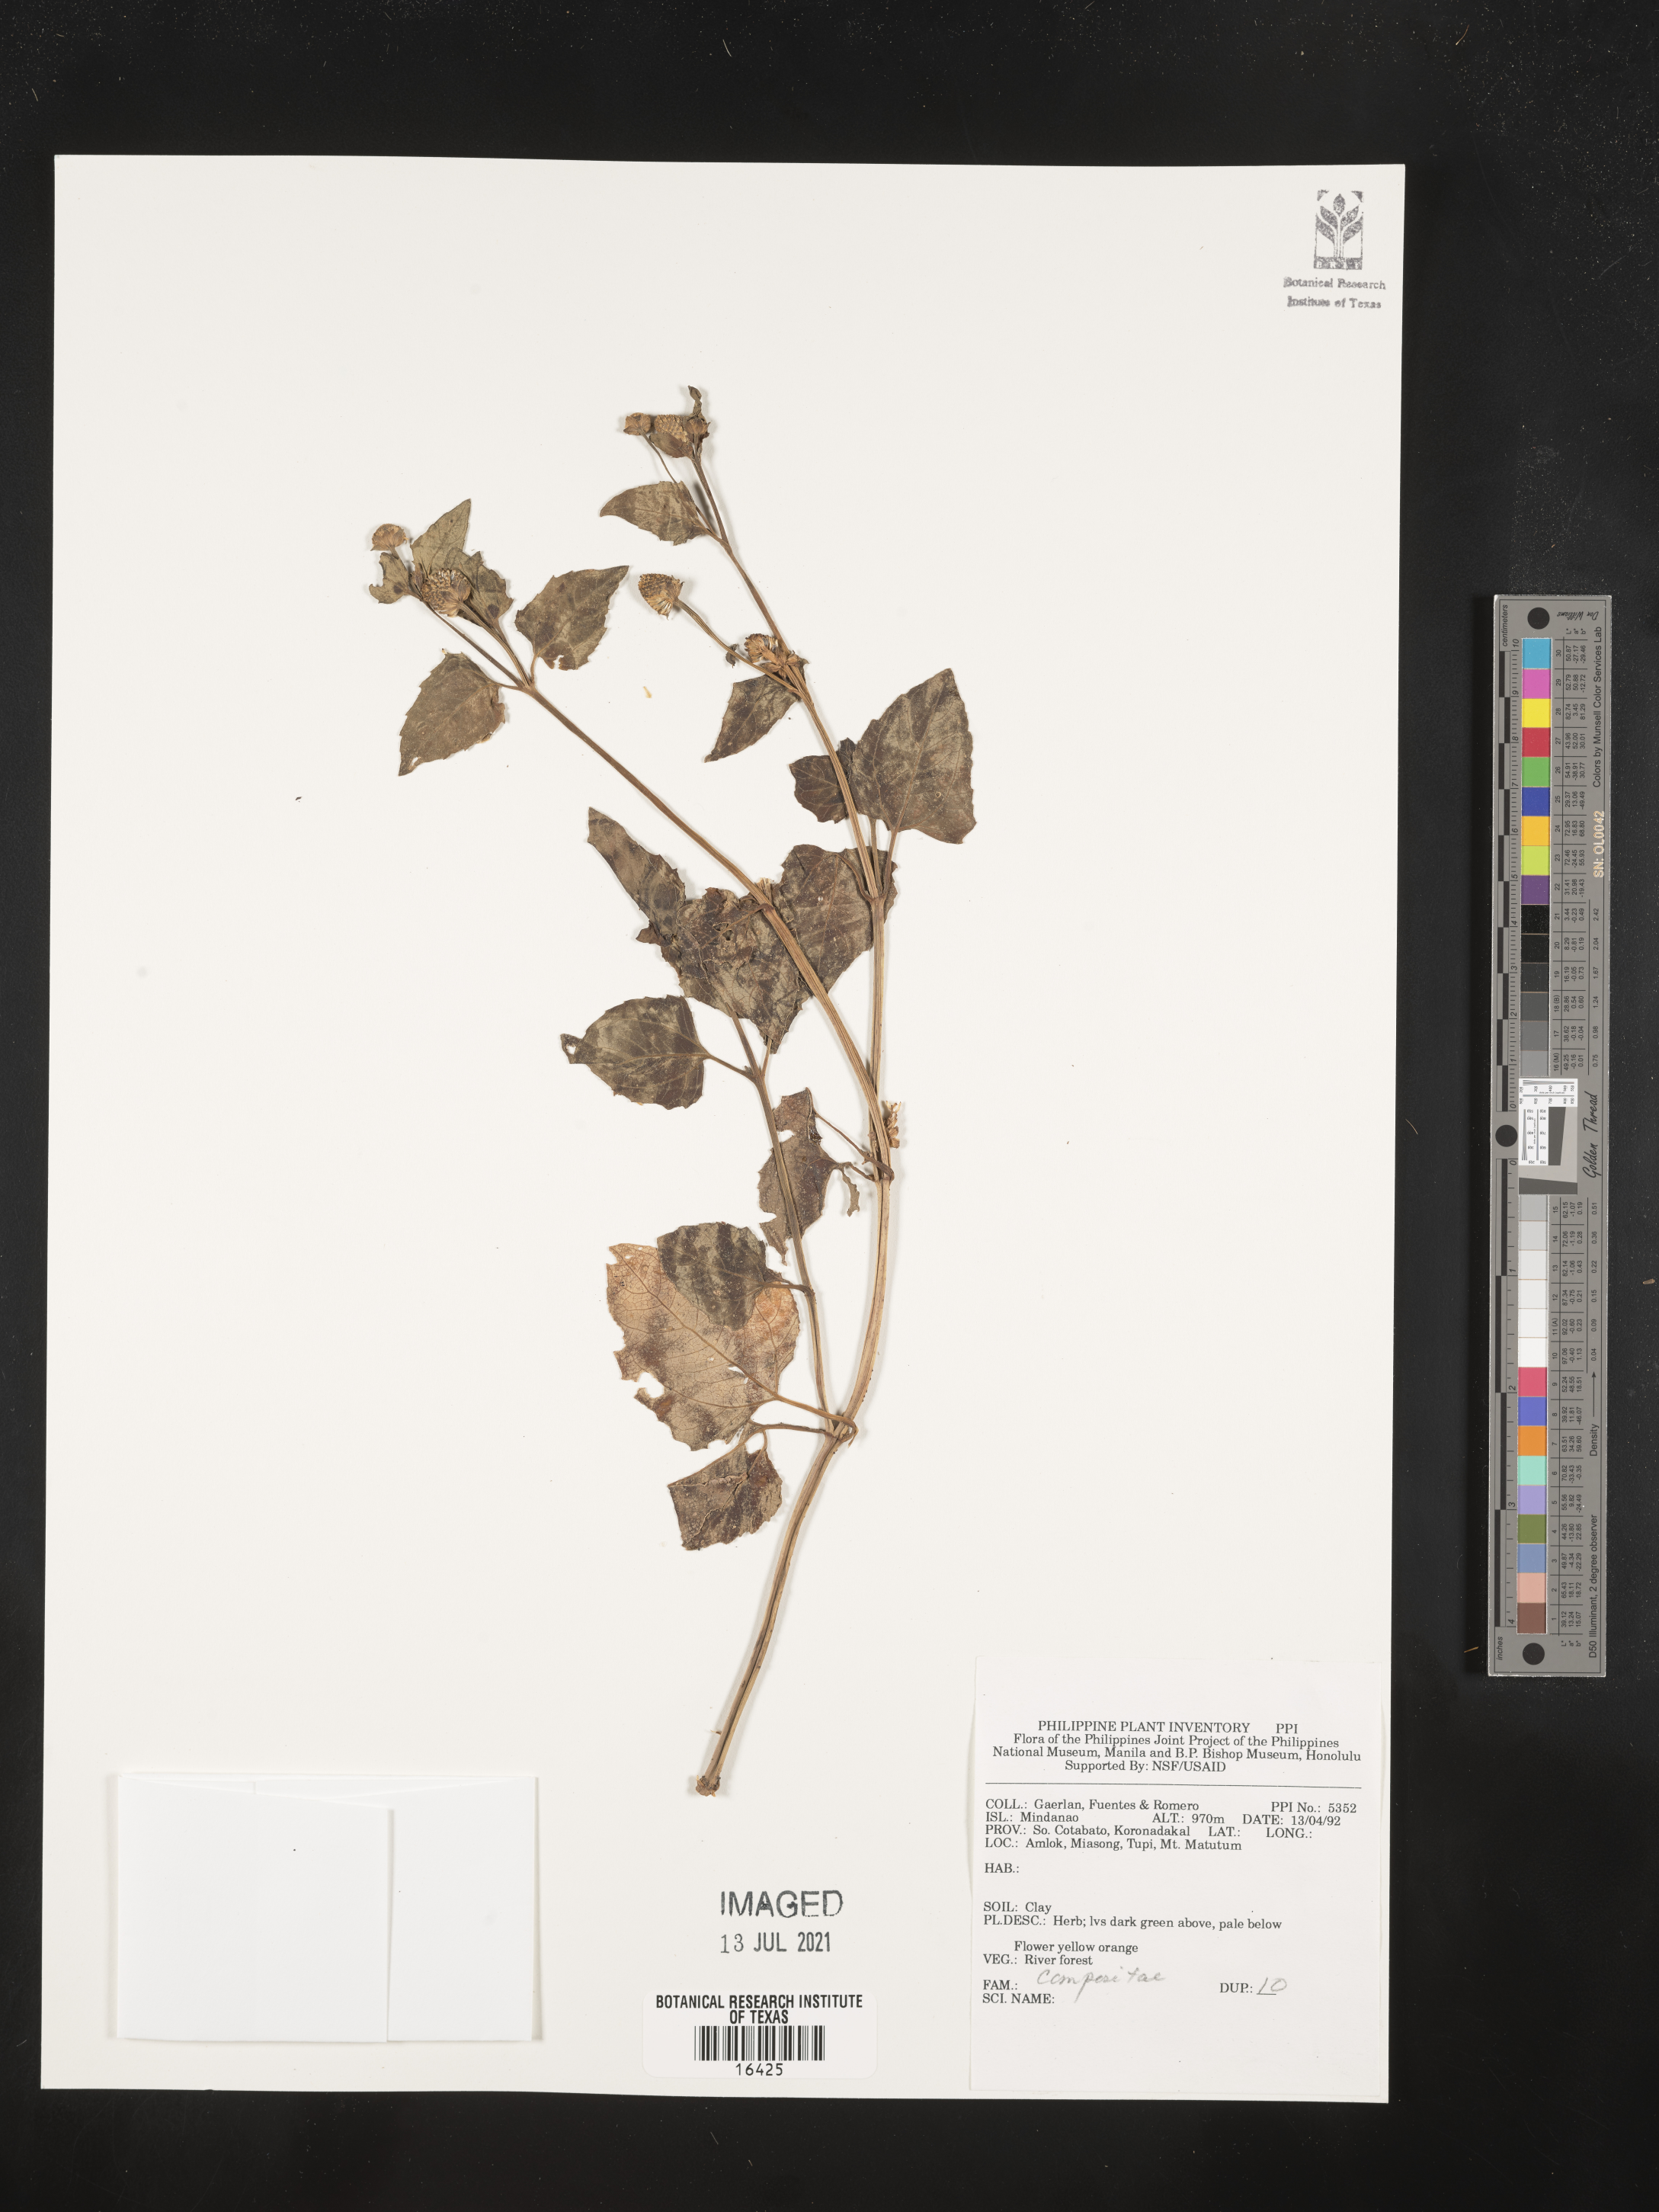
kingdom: Plantae
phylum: Tracheophyta
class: Magnoliopsida
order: Asterales
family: Asteraceae
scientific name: Asteraceae
